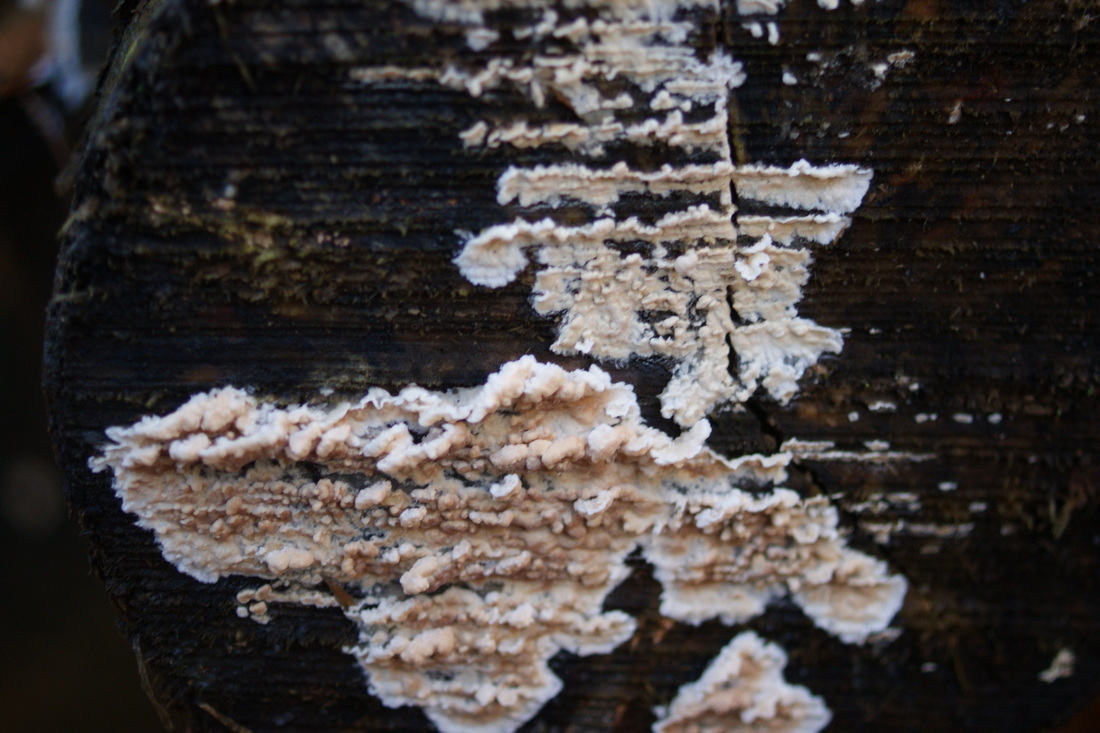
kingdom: Fungi
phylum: Basidiomycota
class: Agaricomycetes
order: Agaricales
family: Physalacriaceae
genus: Cylindrobasidium
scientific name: Cylindrobasidium evolvens
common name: sprækkehinde
